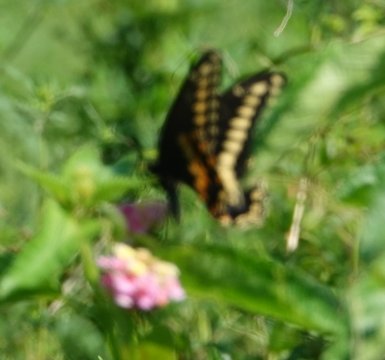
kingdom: Animalia
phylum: Arthropoda
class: Insecta
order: Lepidoptera
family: Papilionidae
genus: Papilio
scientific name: Papilio
